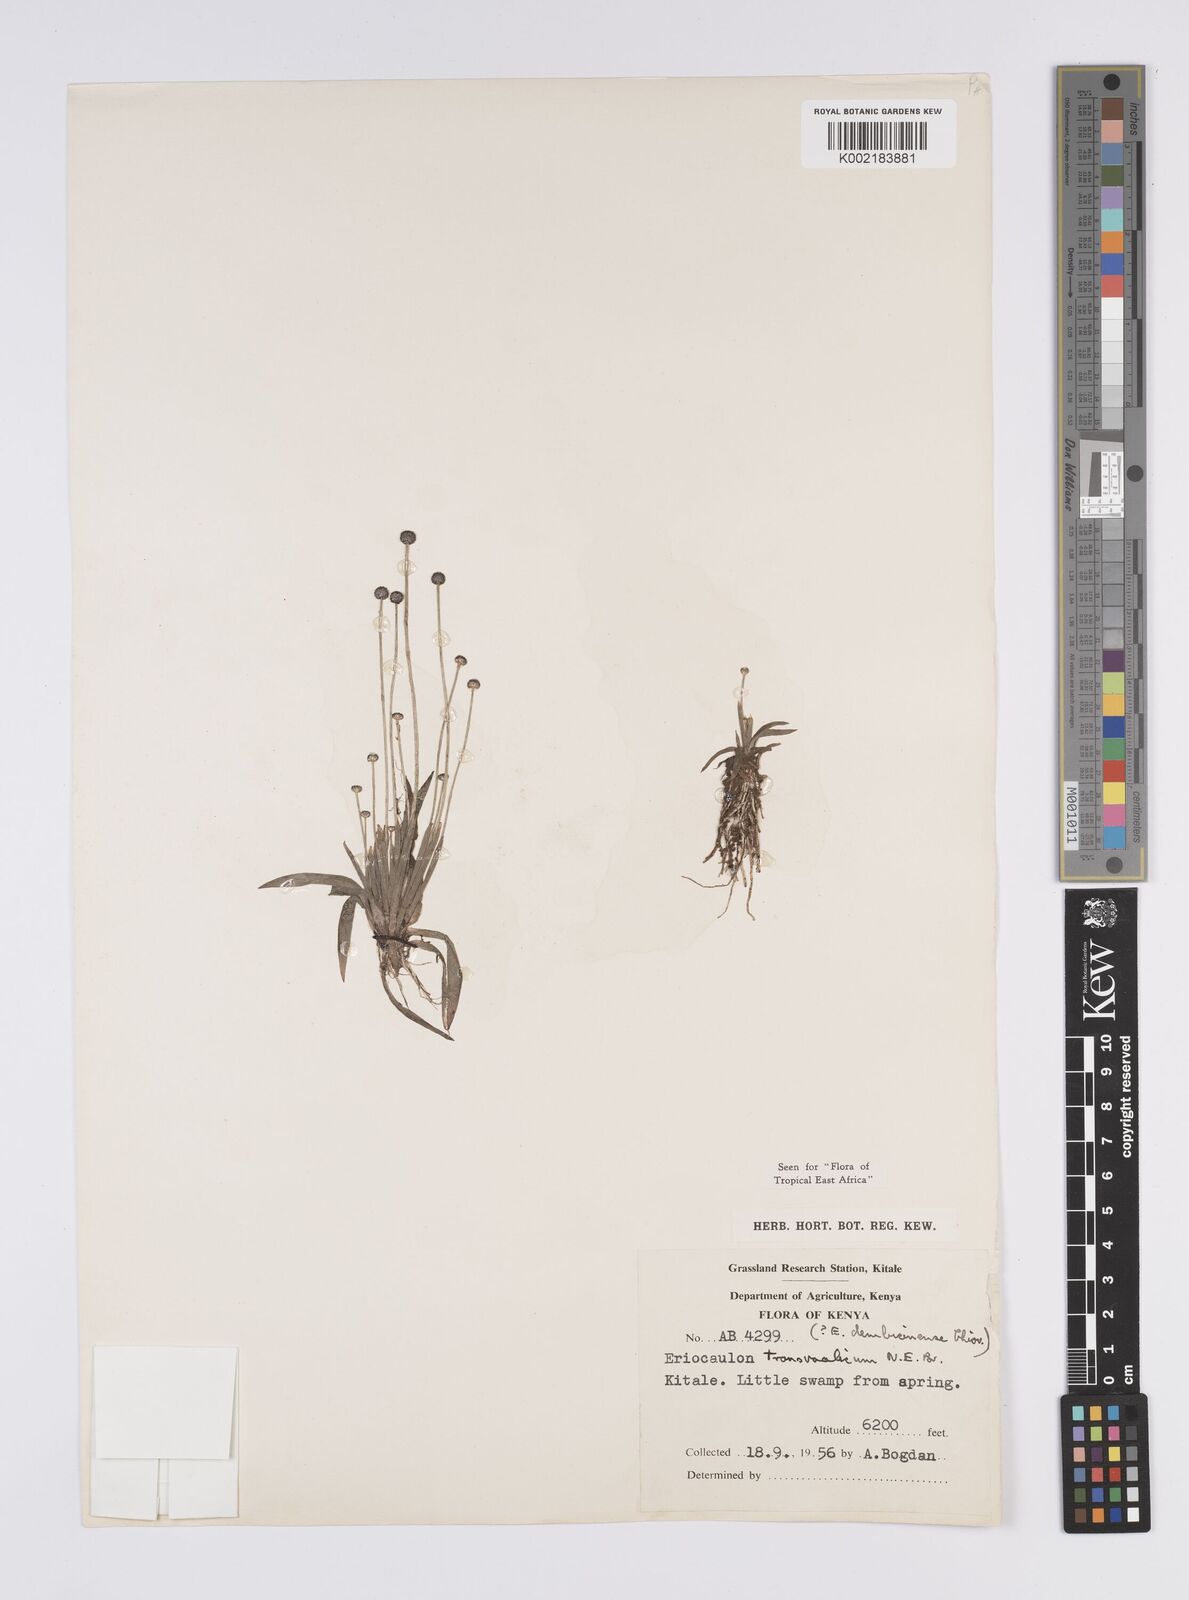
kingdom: Plantae
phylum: Tracheophyta
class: Liliopsida
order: Poales
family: Eriocaulaceae
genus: Eriocaulon
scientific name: Eriocaulon transvaalicum
